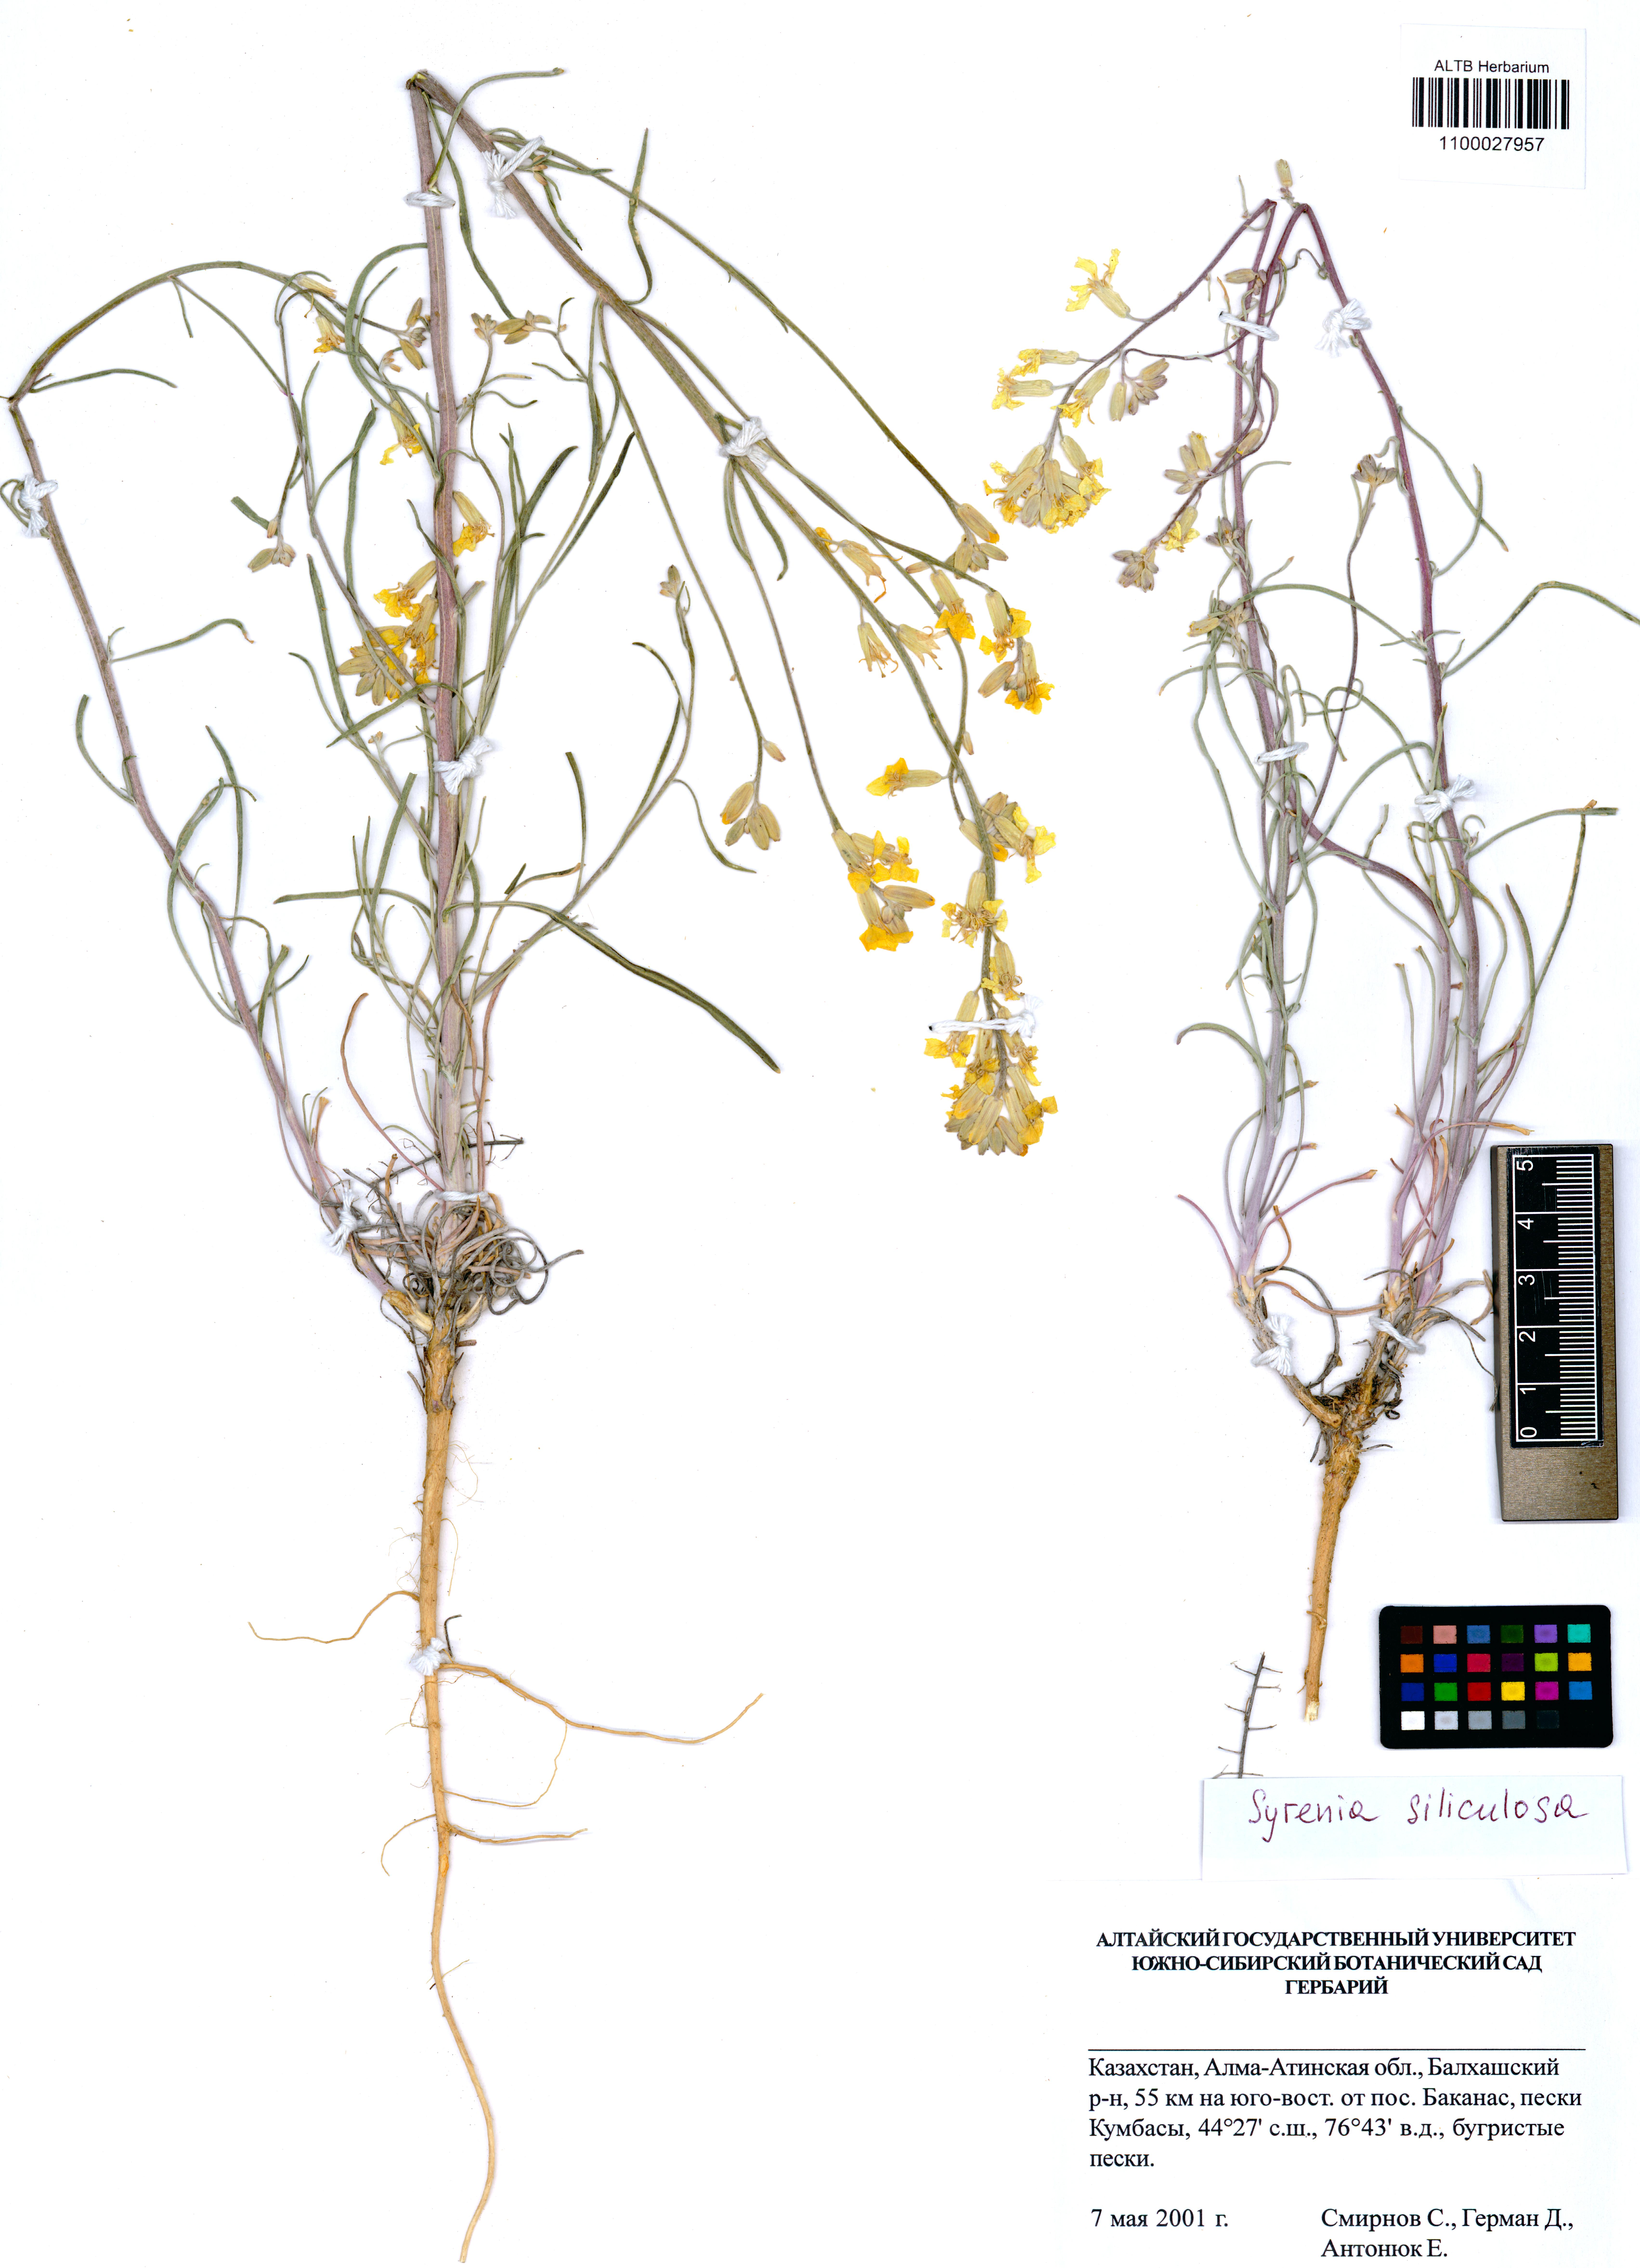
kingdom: Plantae
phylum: Tracheophyta
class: Magnoliopsida
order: Brassicales
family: Brassicaceae
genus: Syrenia
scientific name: Syrenia siliculosa
